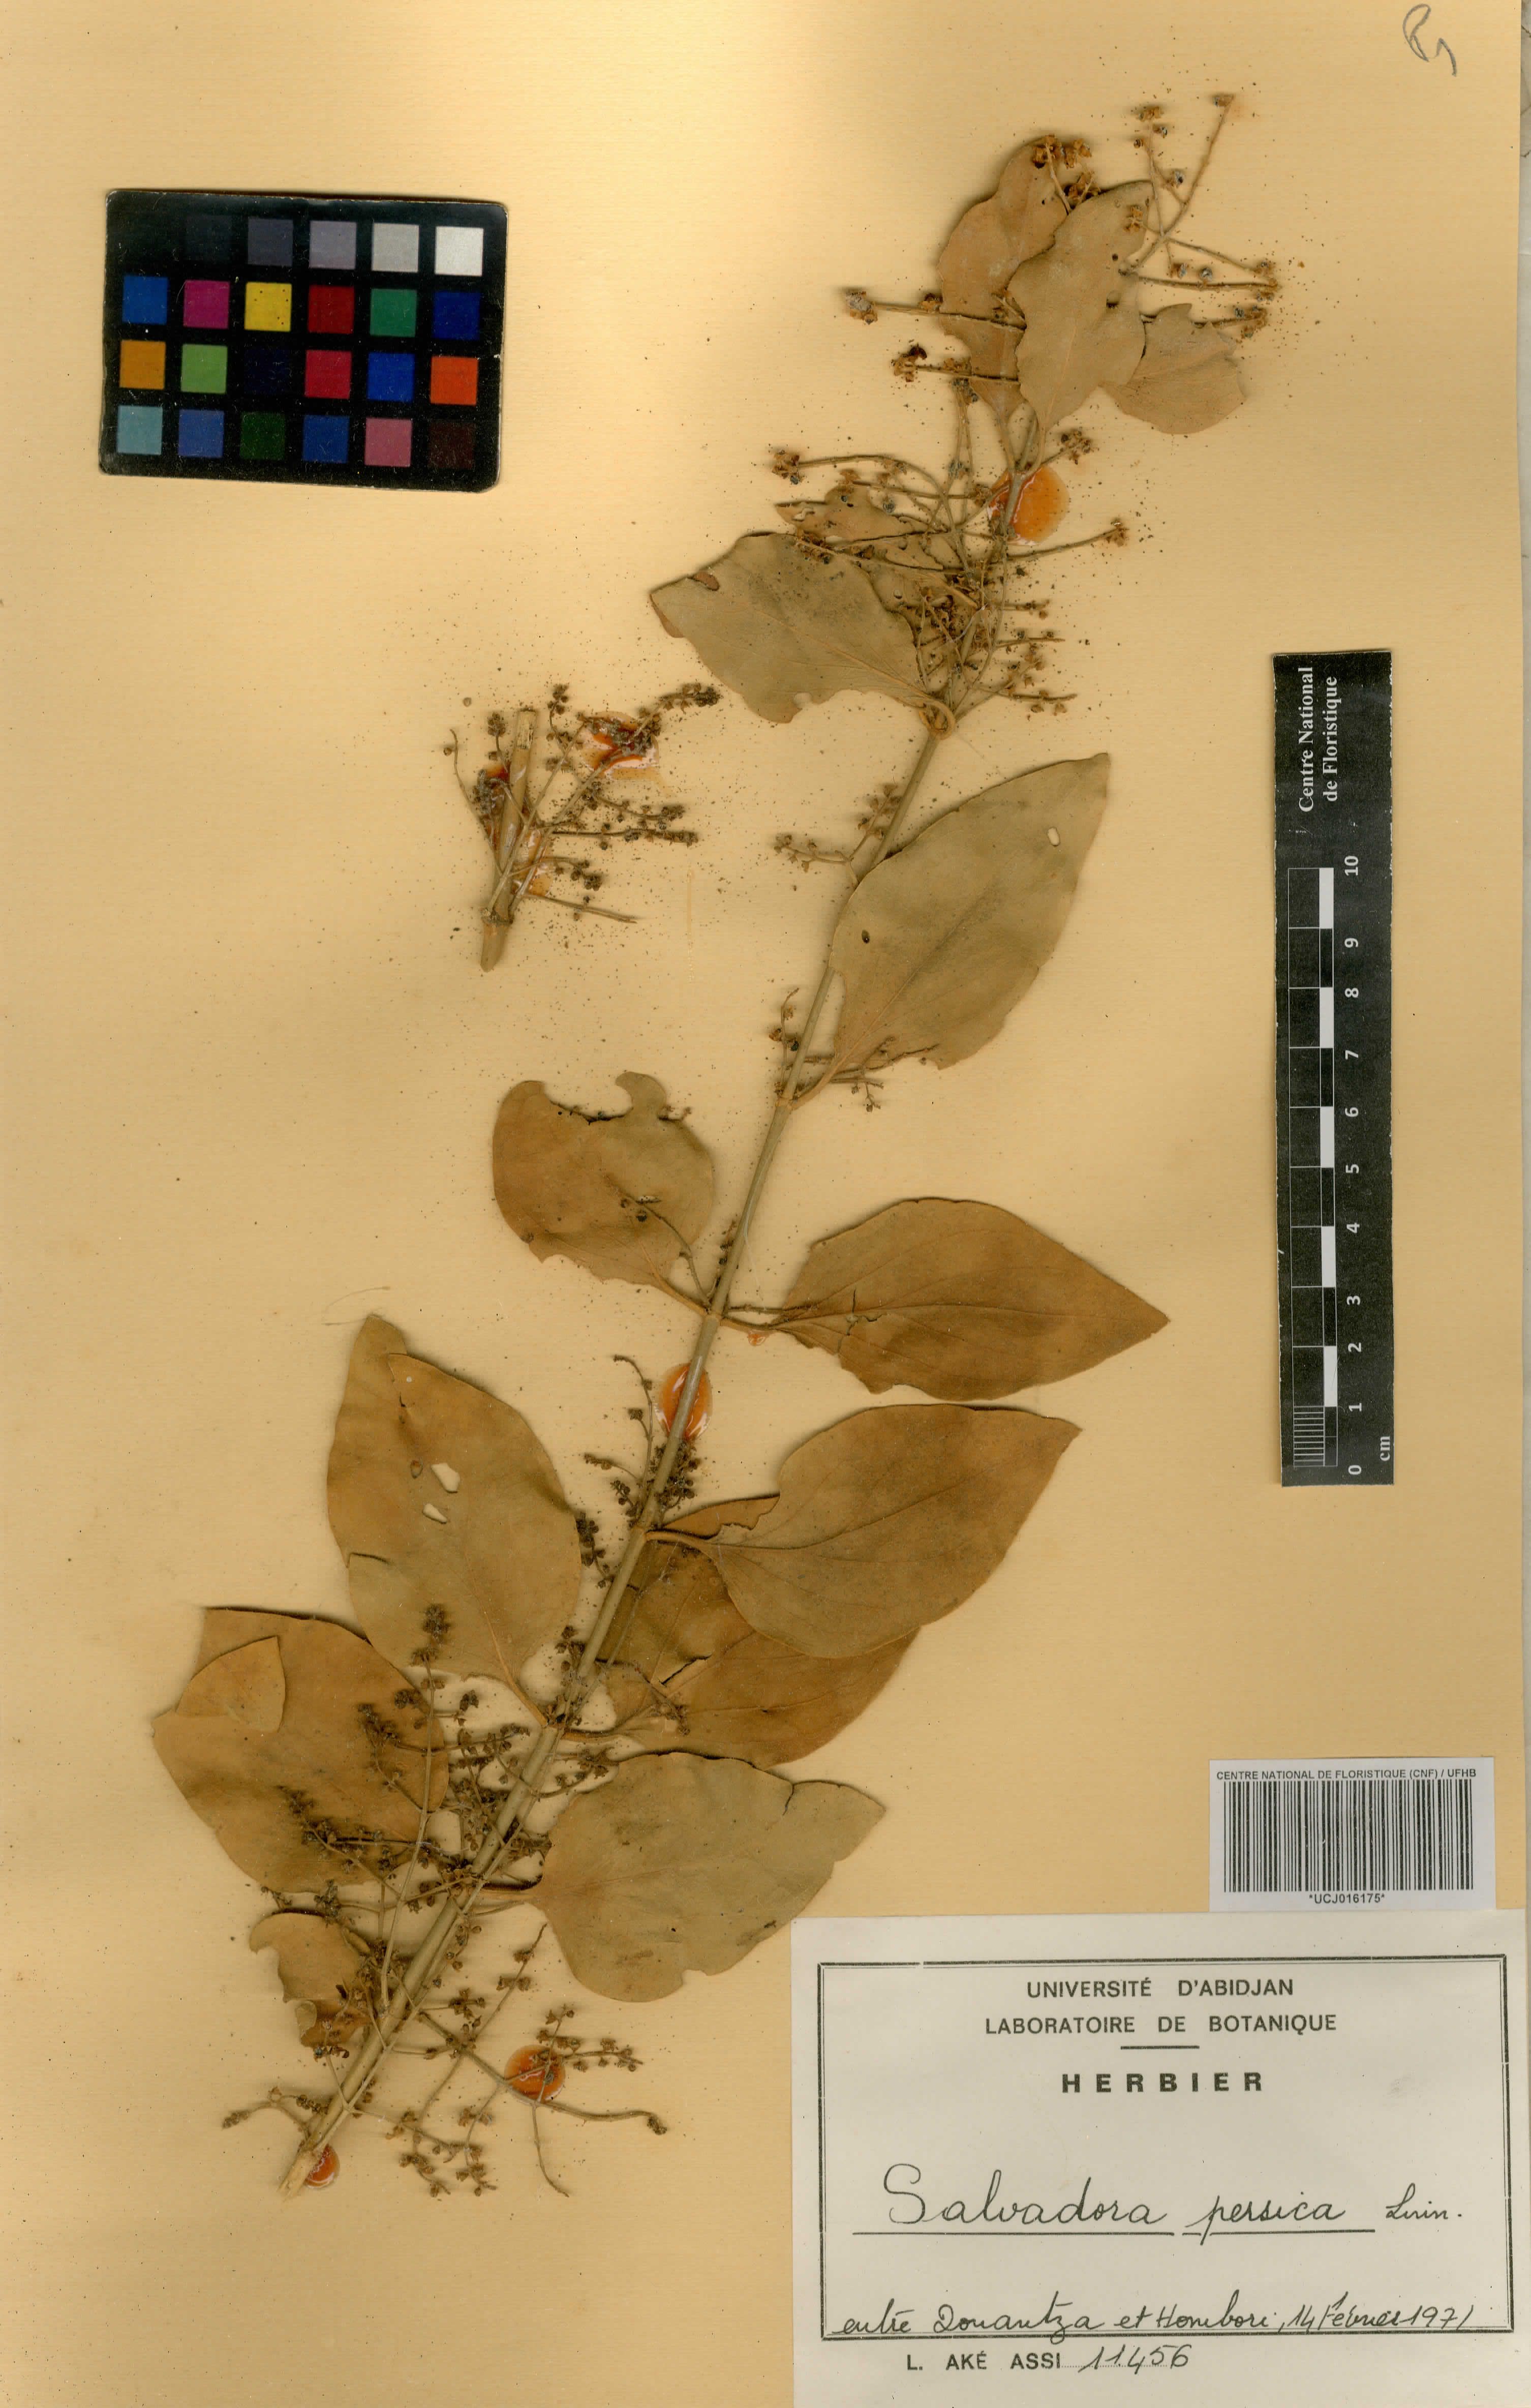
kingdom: Plantae
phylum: Tracheophyta
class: Magnoliopsida
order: Brassicales
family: Salvadoraceae
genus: Salvadora
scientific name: Salvadora persica
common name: Toothbrushtree
